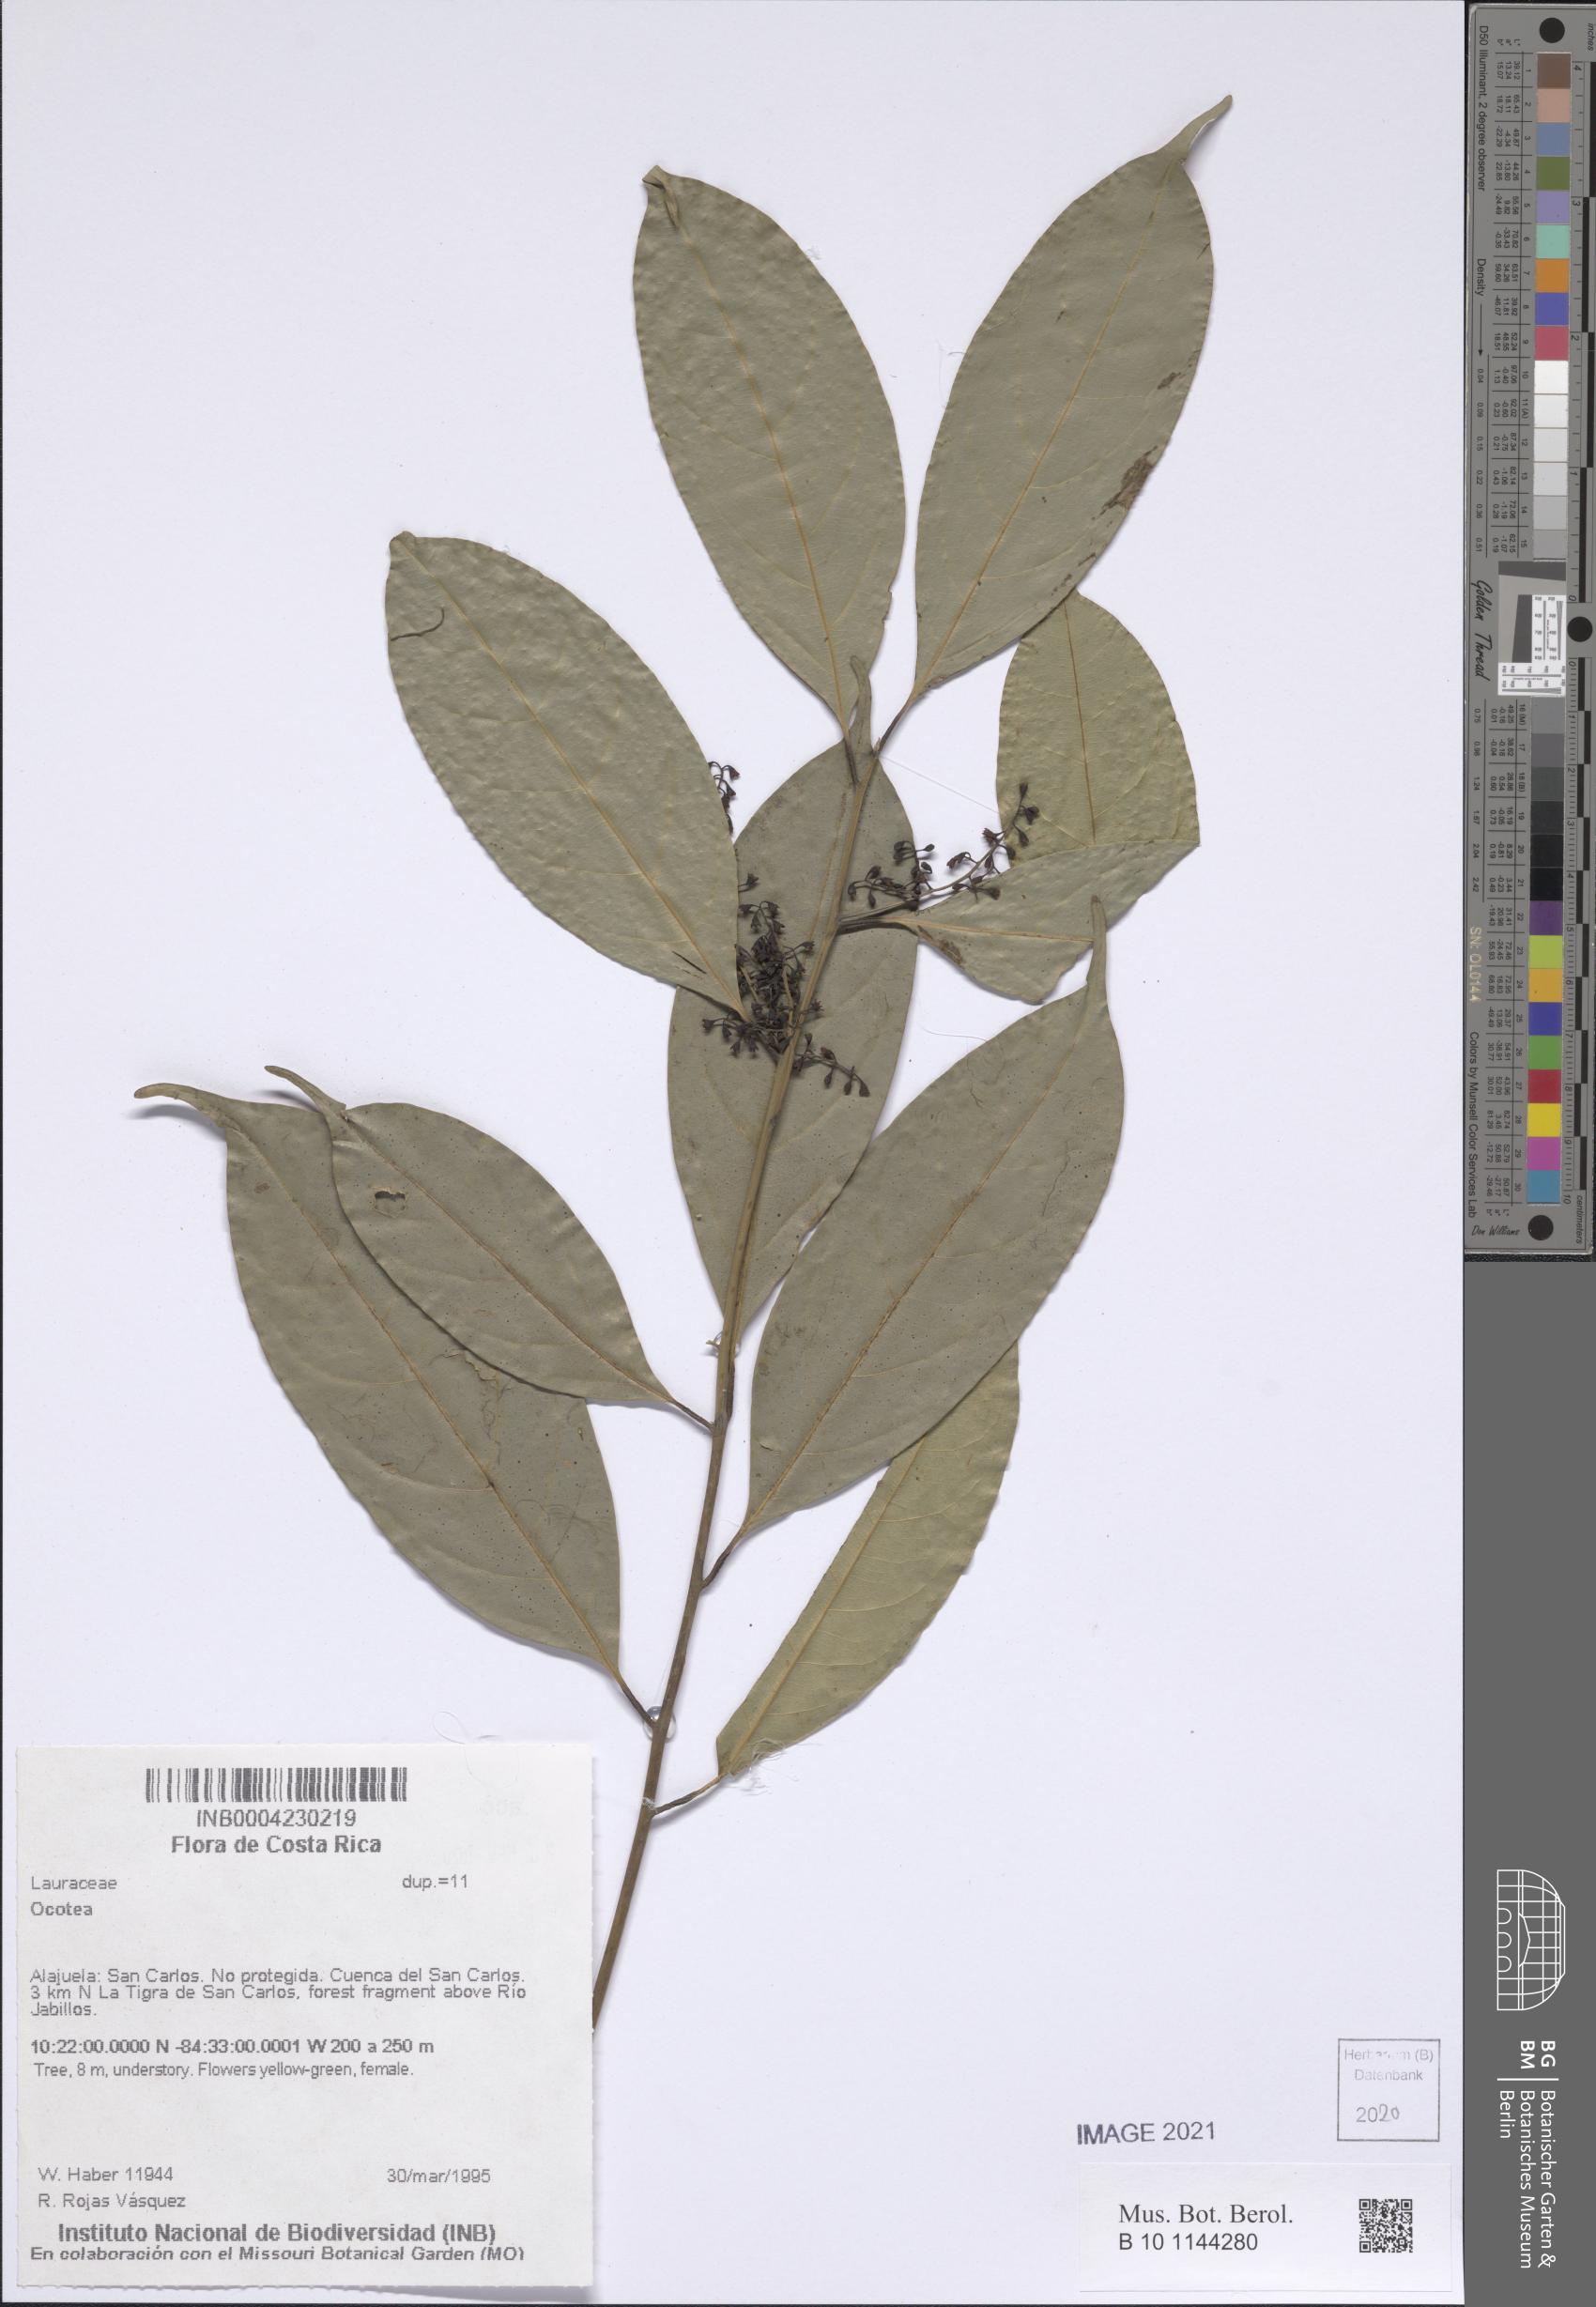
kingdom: Plantae
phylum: Tracheophyta
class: Magnoliopsida
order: Laurales
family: Lauraceae
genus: Ocotea
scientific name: Ocotea
